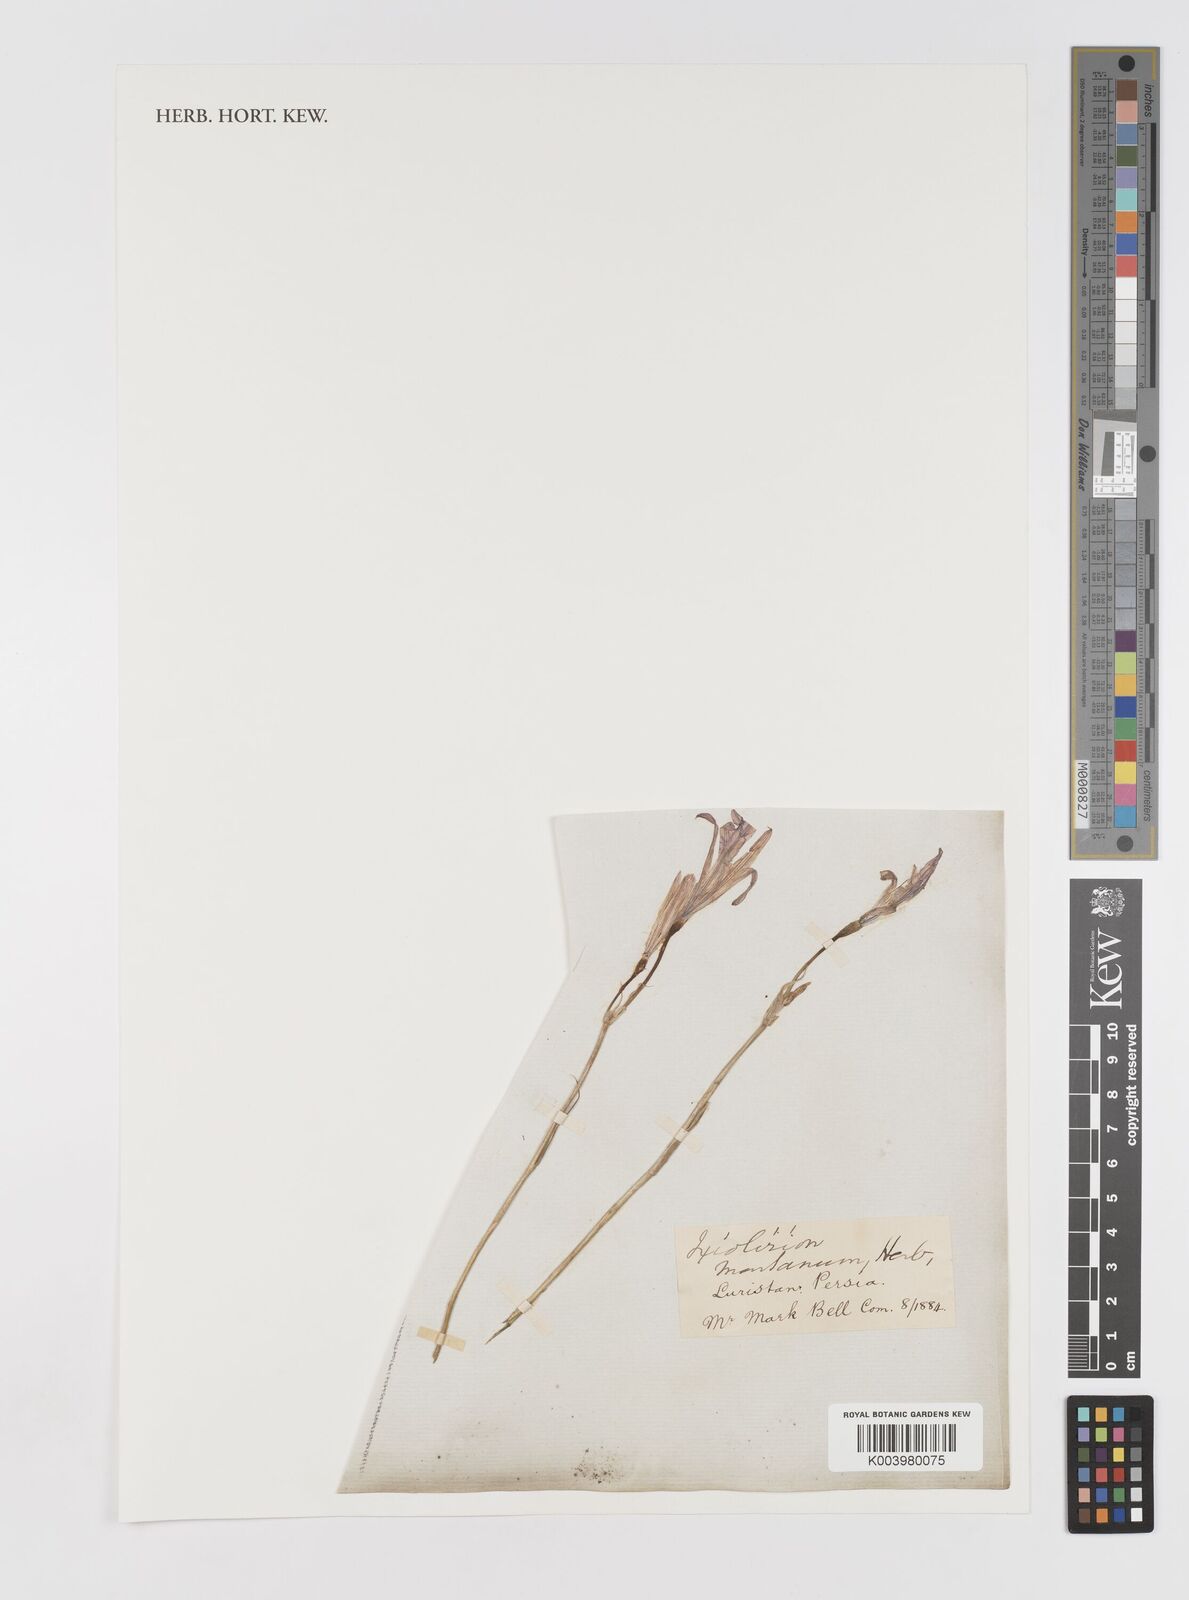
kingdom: Plantae
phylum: Tracheophyta
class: Liliopsida
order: Asparagales
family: Ixioliriaceae
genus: Ixiolirion
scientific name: Ixiolirion tataricum
